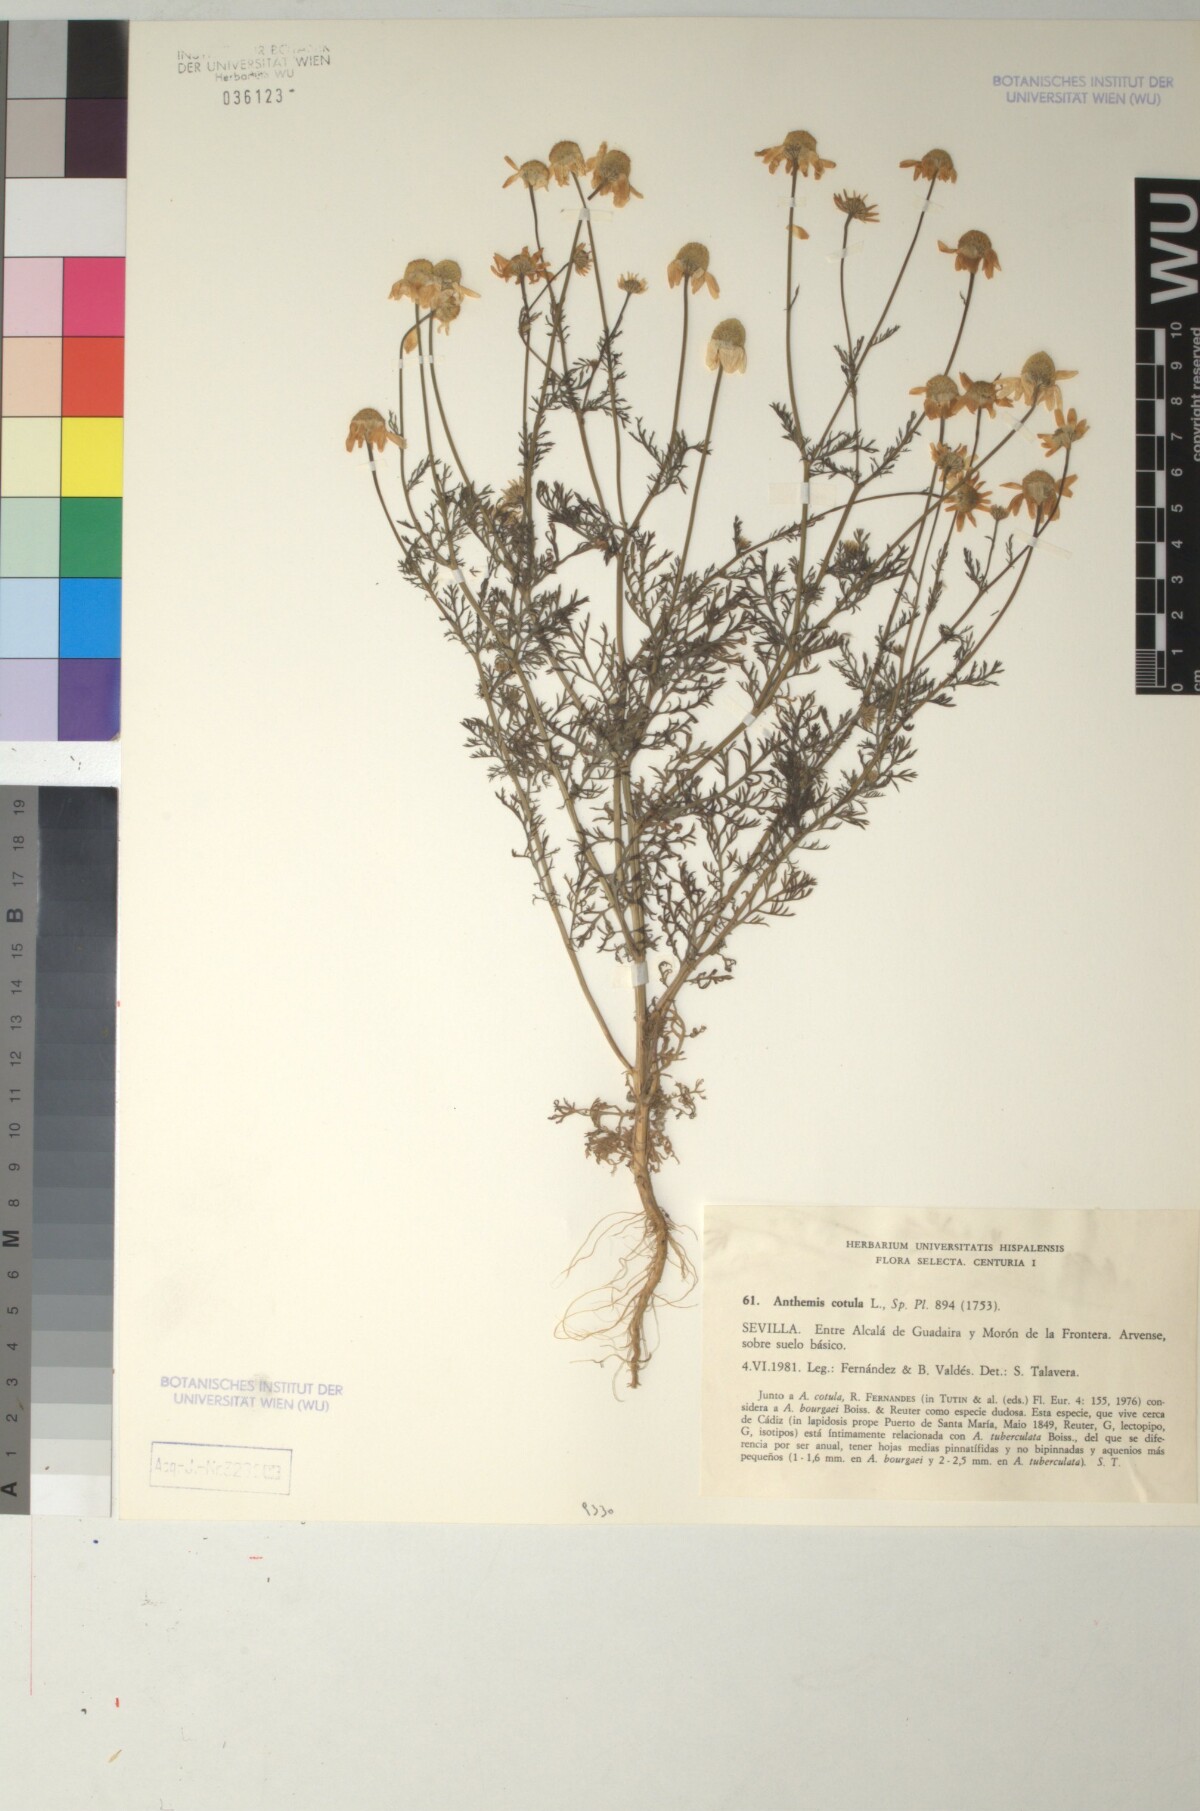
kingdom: Plantae
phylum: Tracheophyta
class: Magnoliopsida
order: Asterales
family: Asteraceae
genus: Anthemis
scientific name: Anthemis cotula
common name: Stinking chamomile
